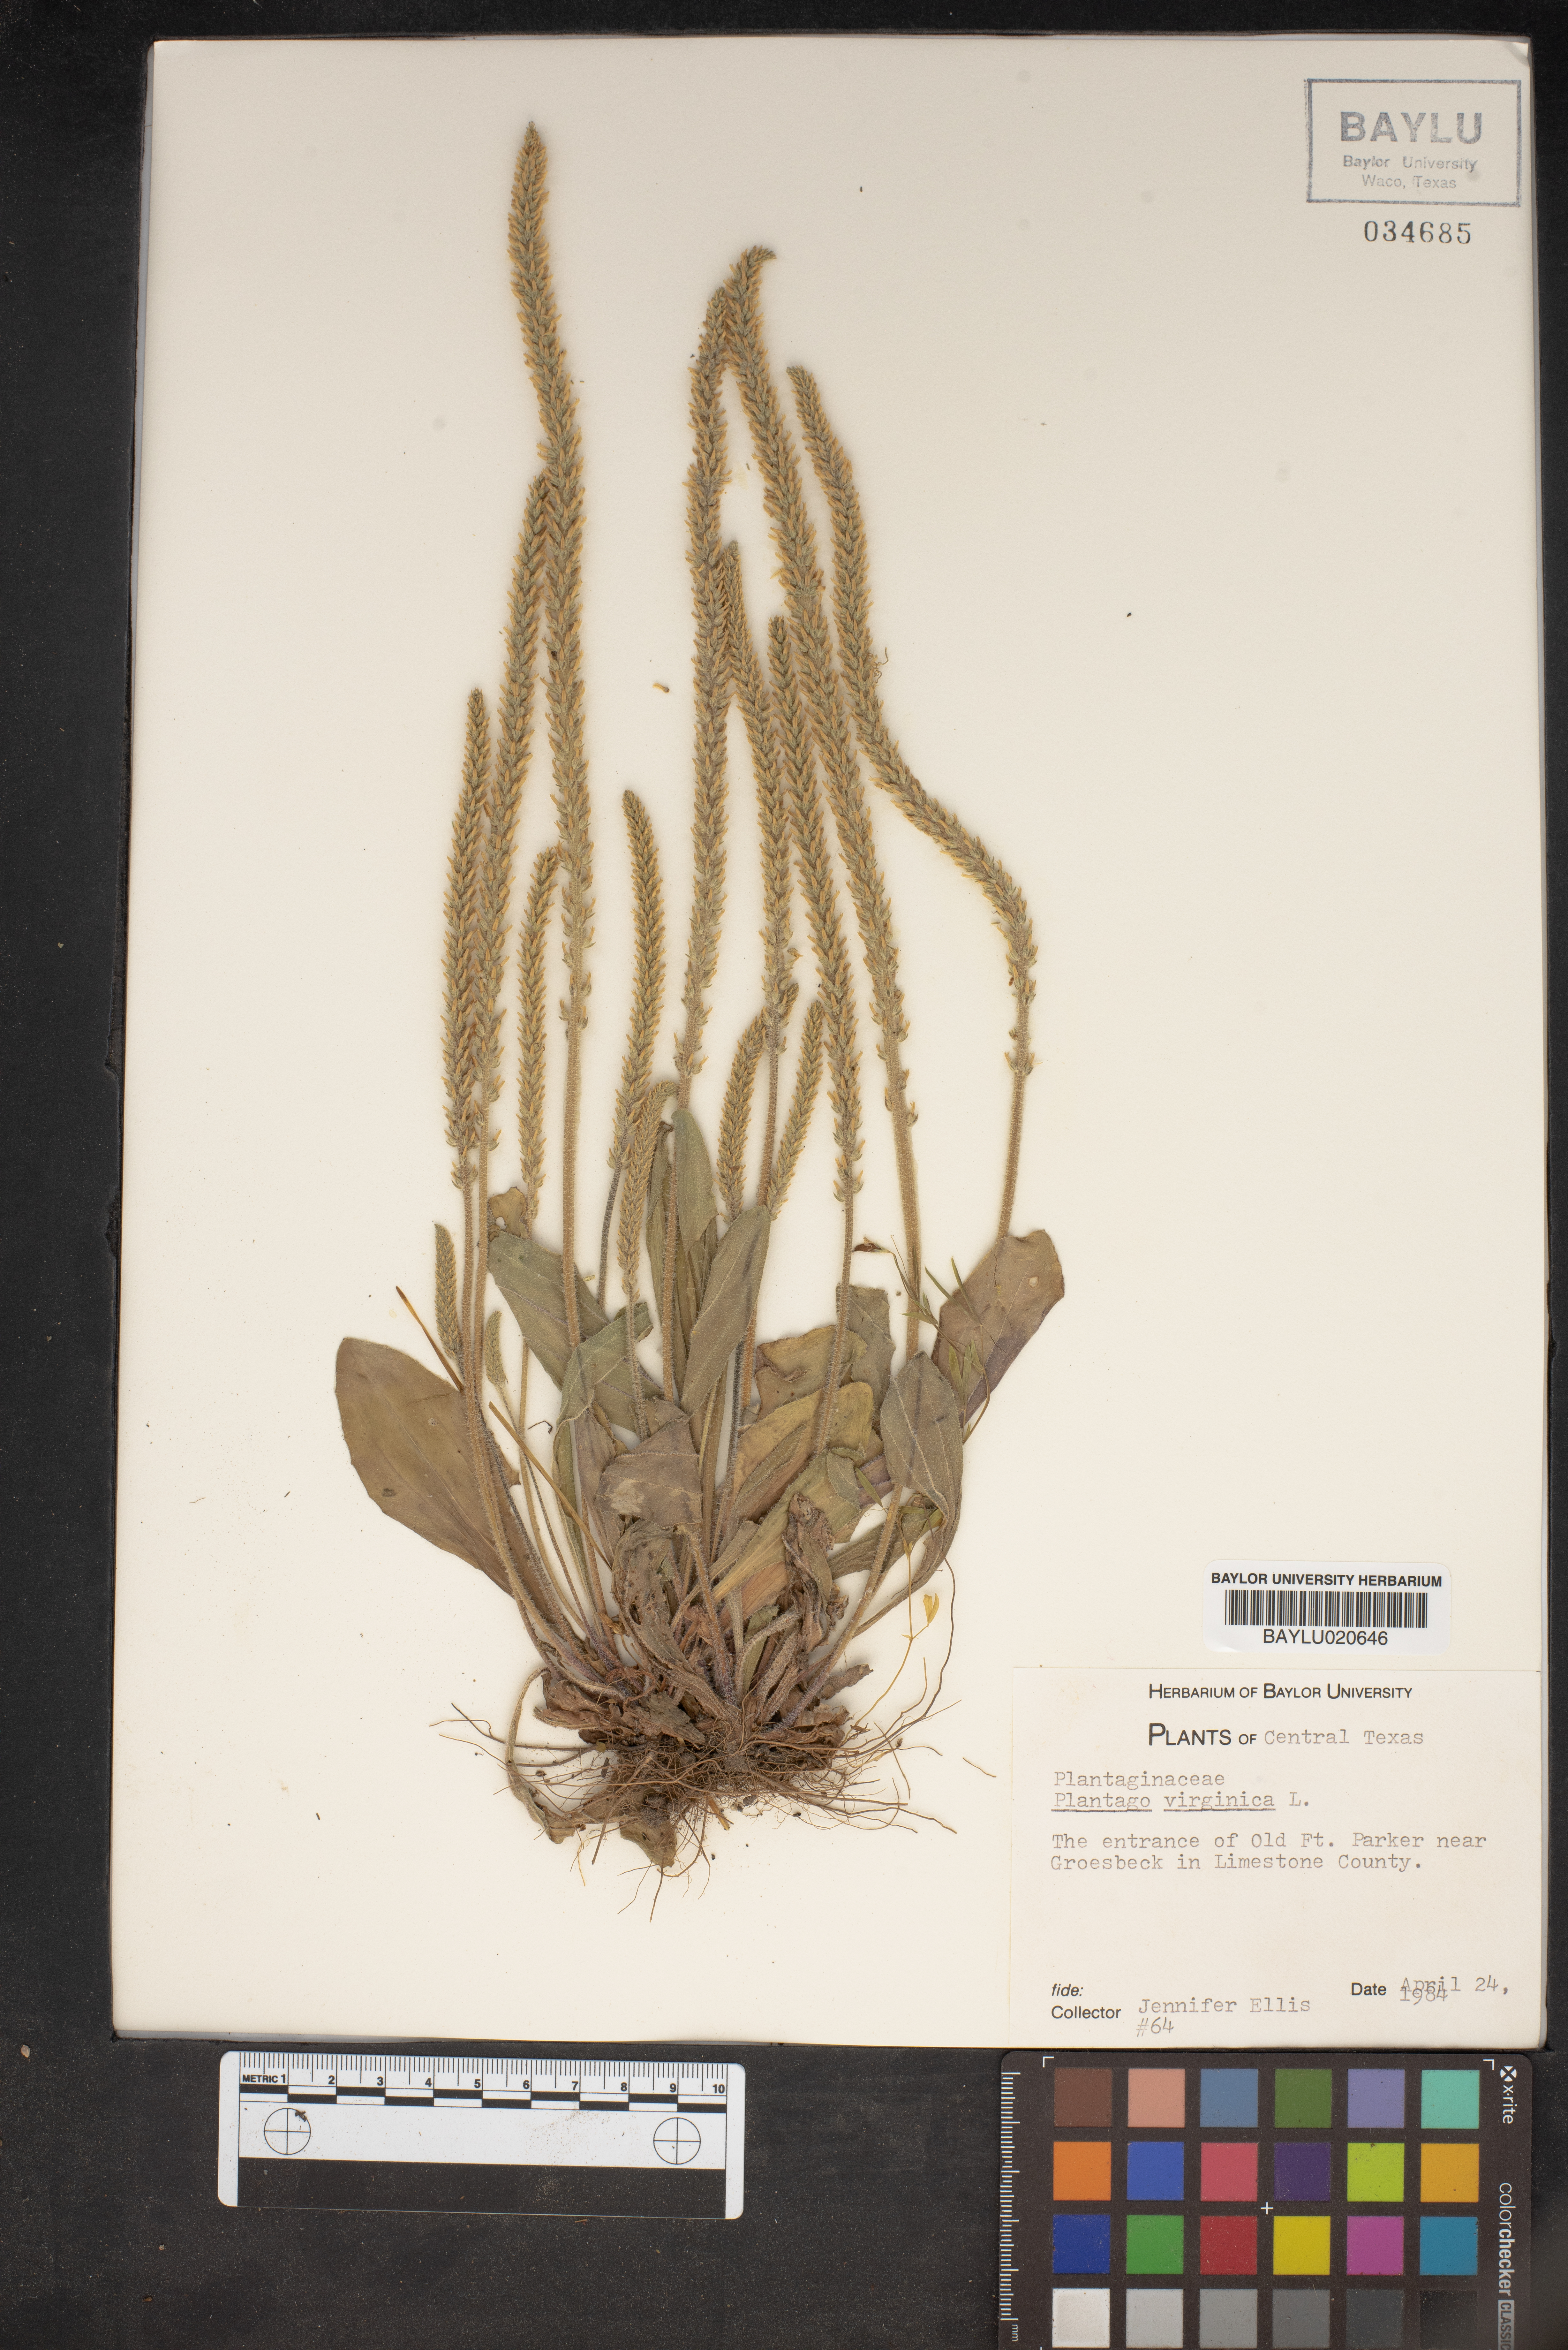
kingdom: Plantae
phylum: Tracheophyta
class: Magnoliopsida
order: Lamiales
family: Plantaginaceae
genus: Plantago
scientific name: Plantago virginica
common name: Hoary plantain
